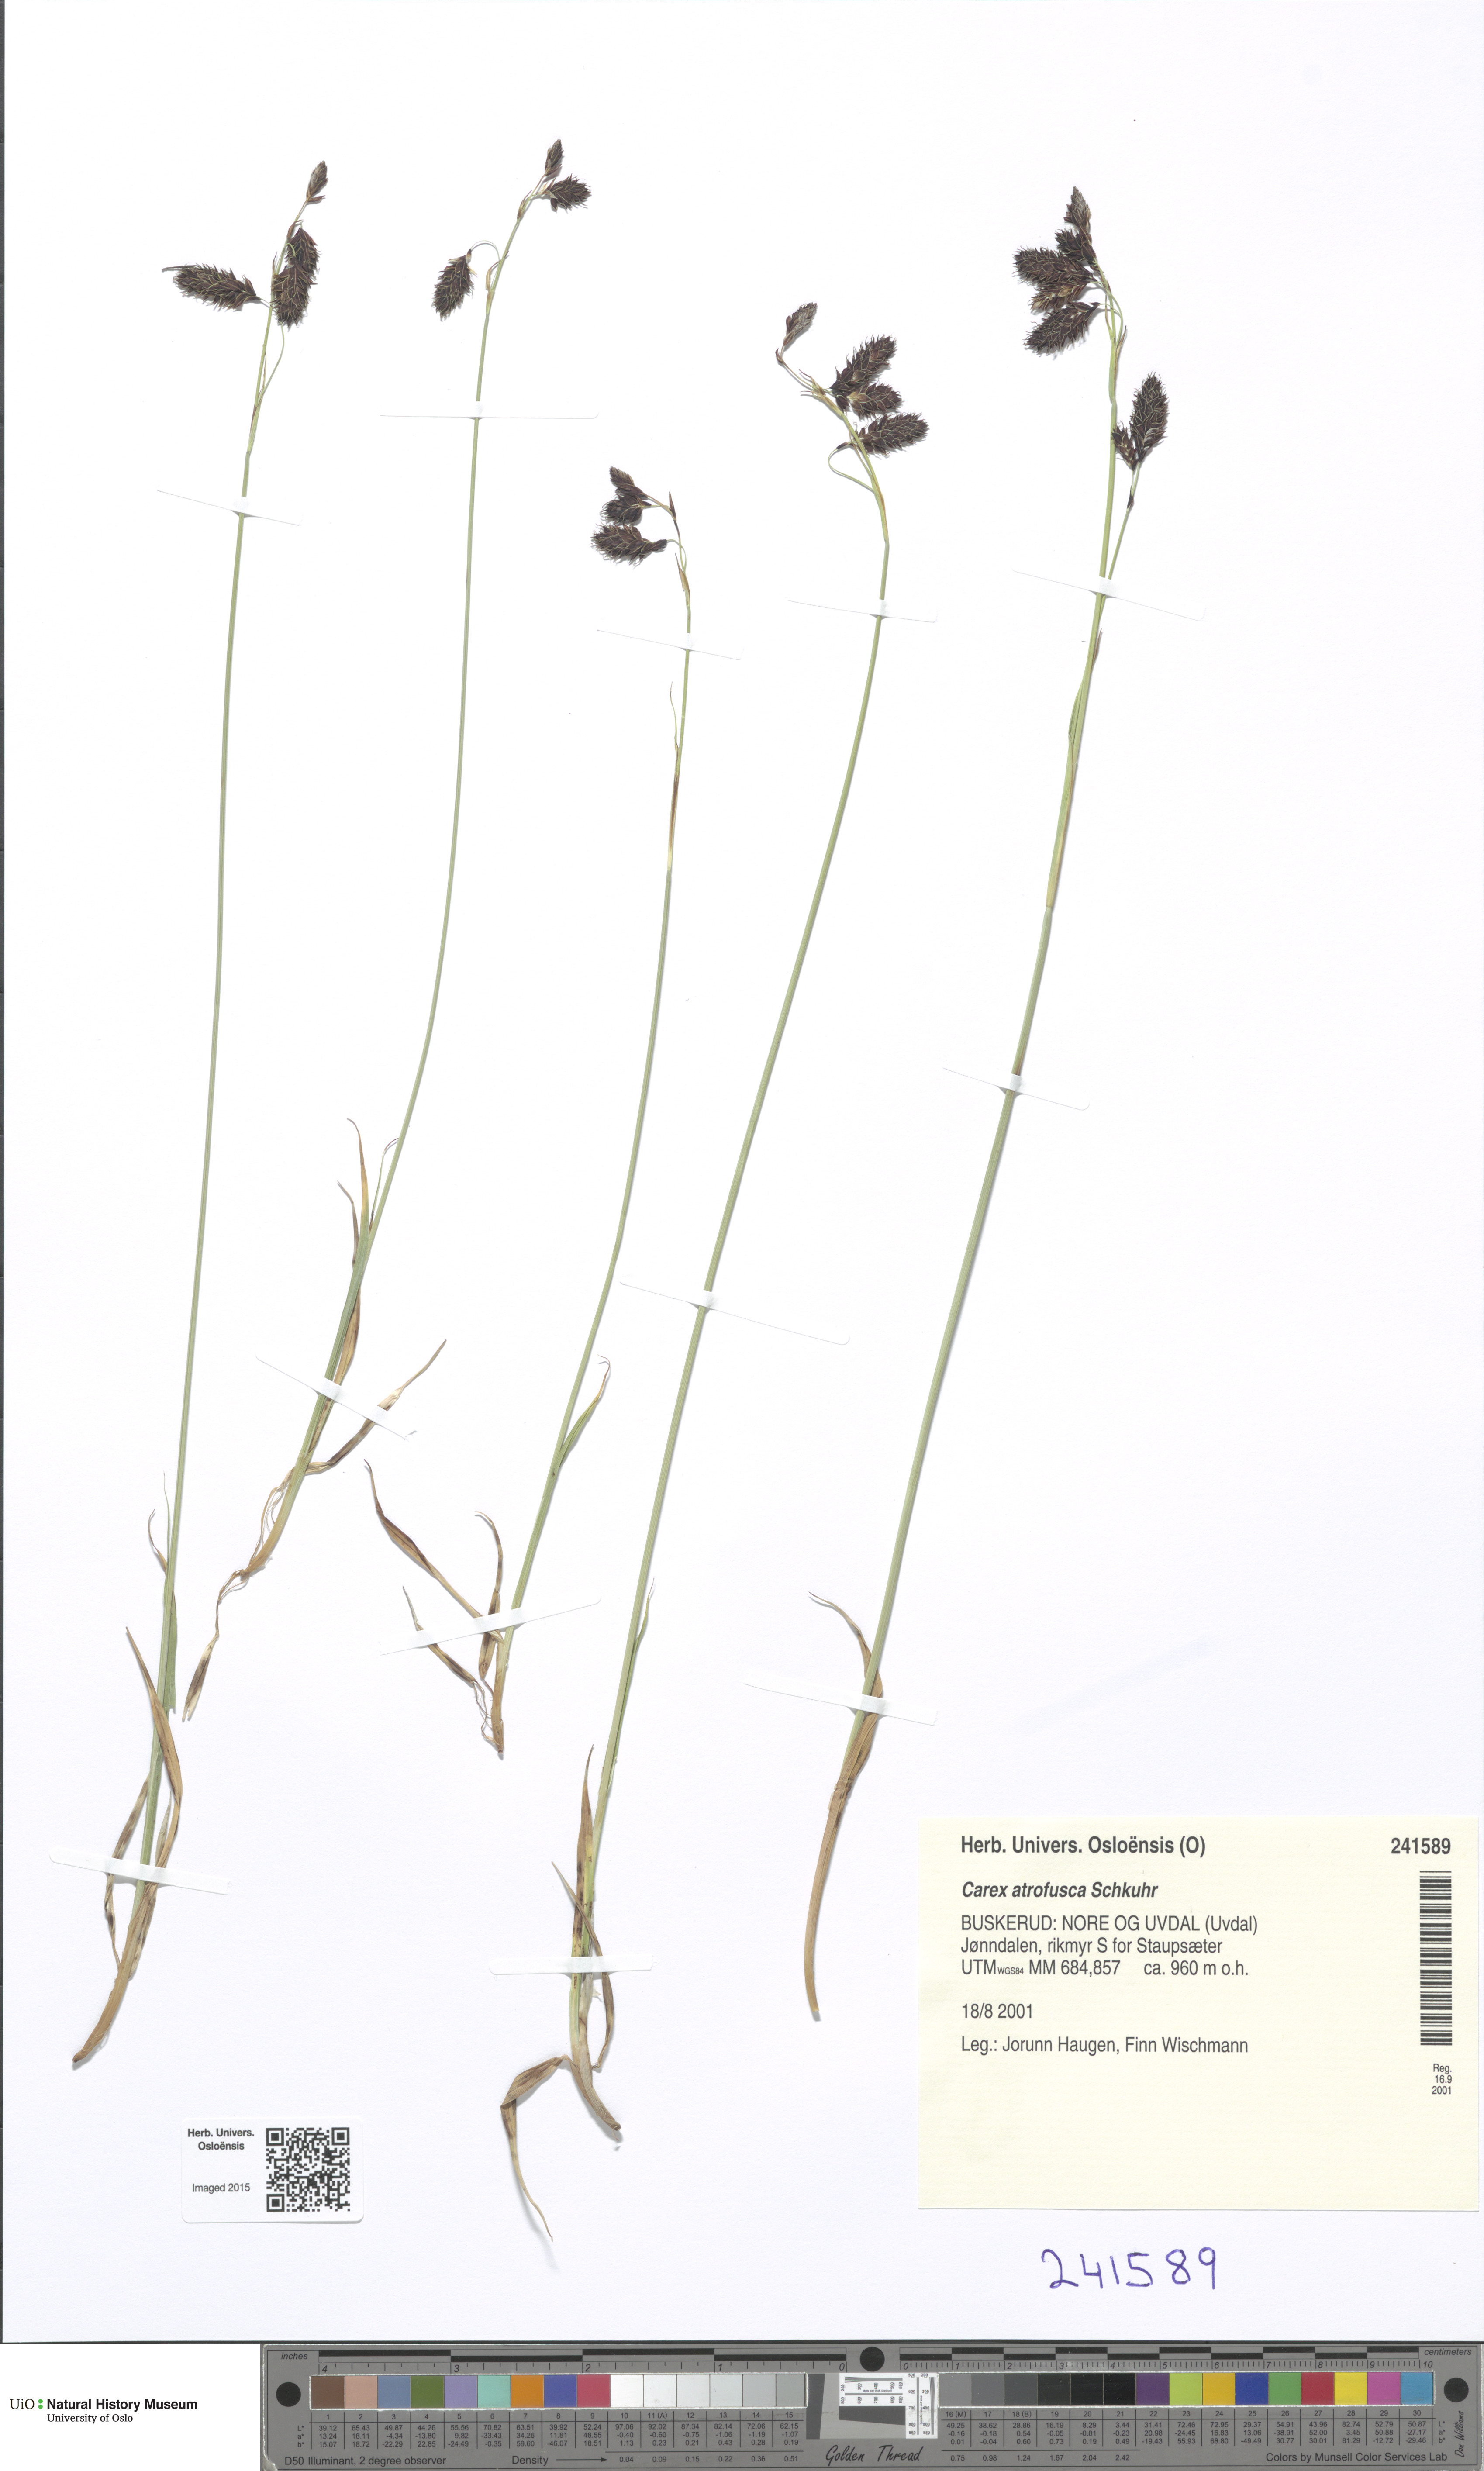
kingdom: Plantae
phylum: Tracheophyta
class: Liliopsida
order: Poales
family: Cyperaceae
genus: Carex
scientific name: Carex atrofusca
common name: Scorched alpine-sedge
